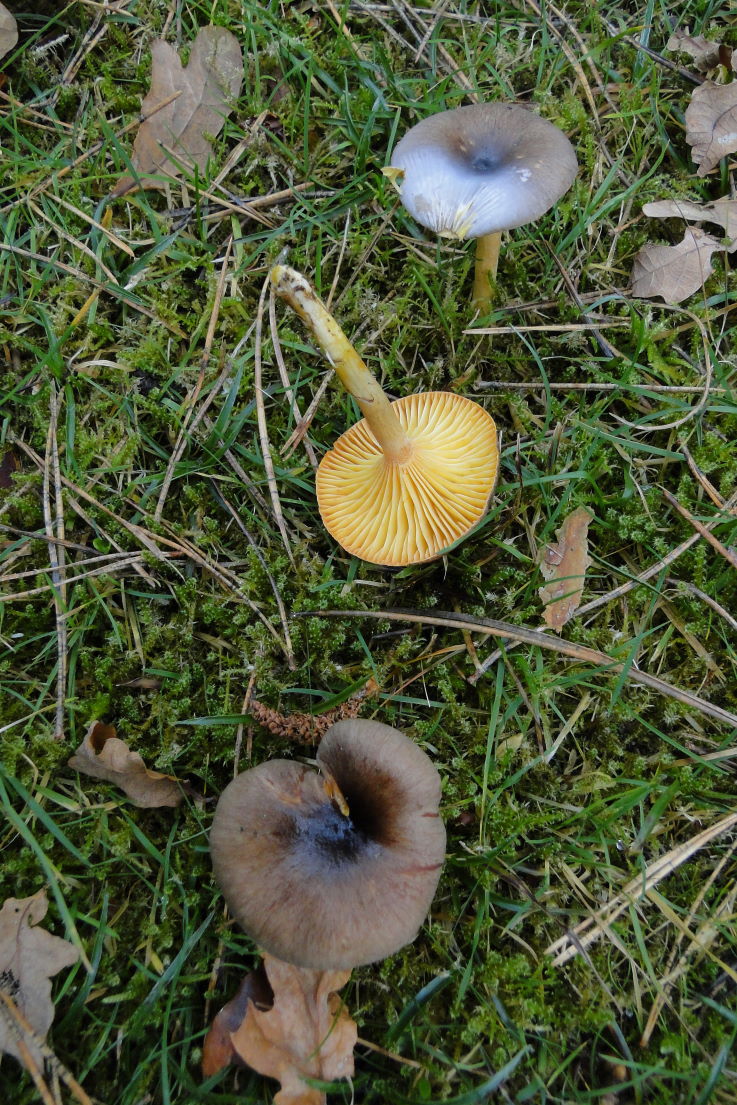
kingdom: Fungi
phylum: Basidiomycota
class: Agaricomycetes
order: Agaricales
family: Hygrophoraceae
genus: Hygrophorus
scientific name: Hygrophorus hypothejus
